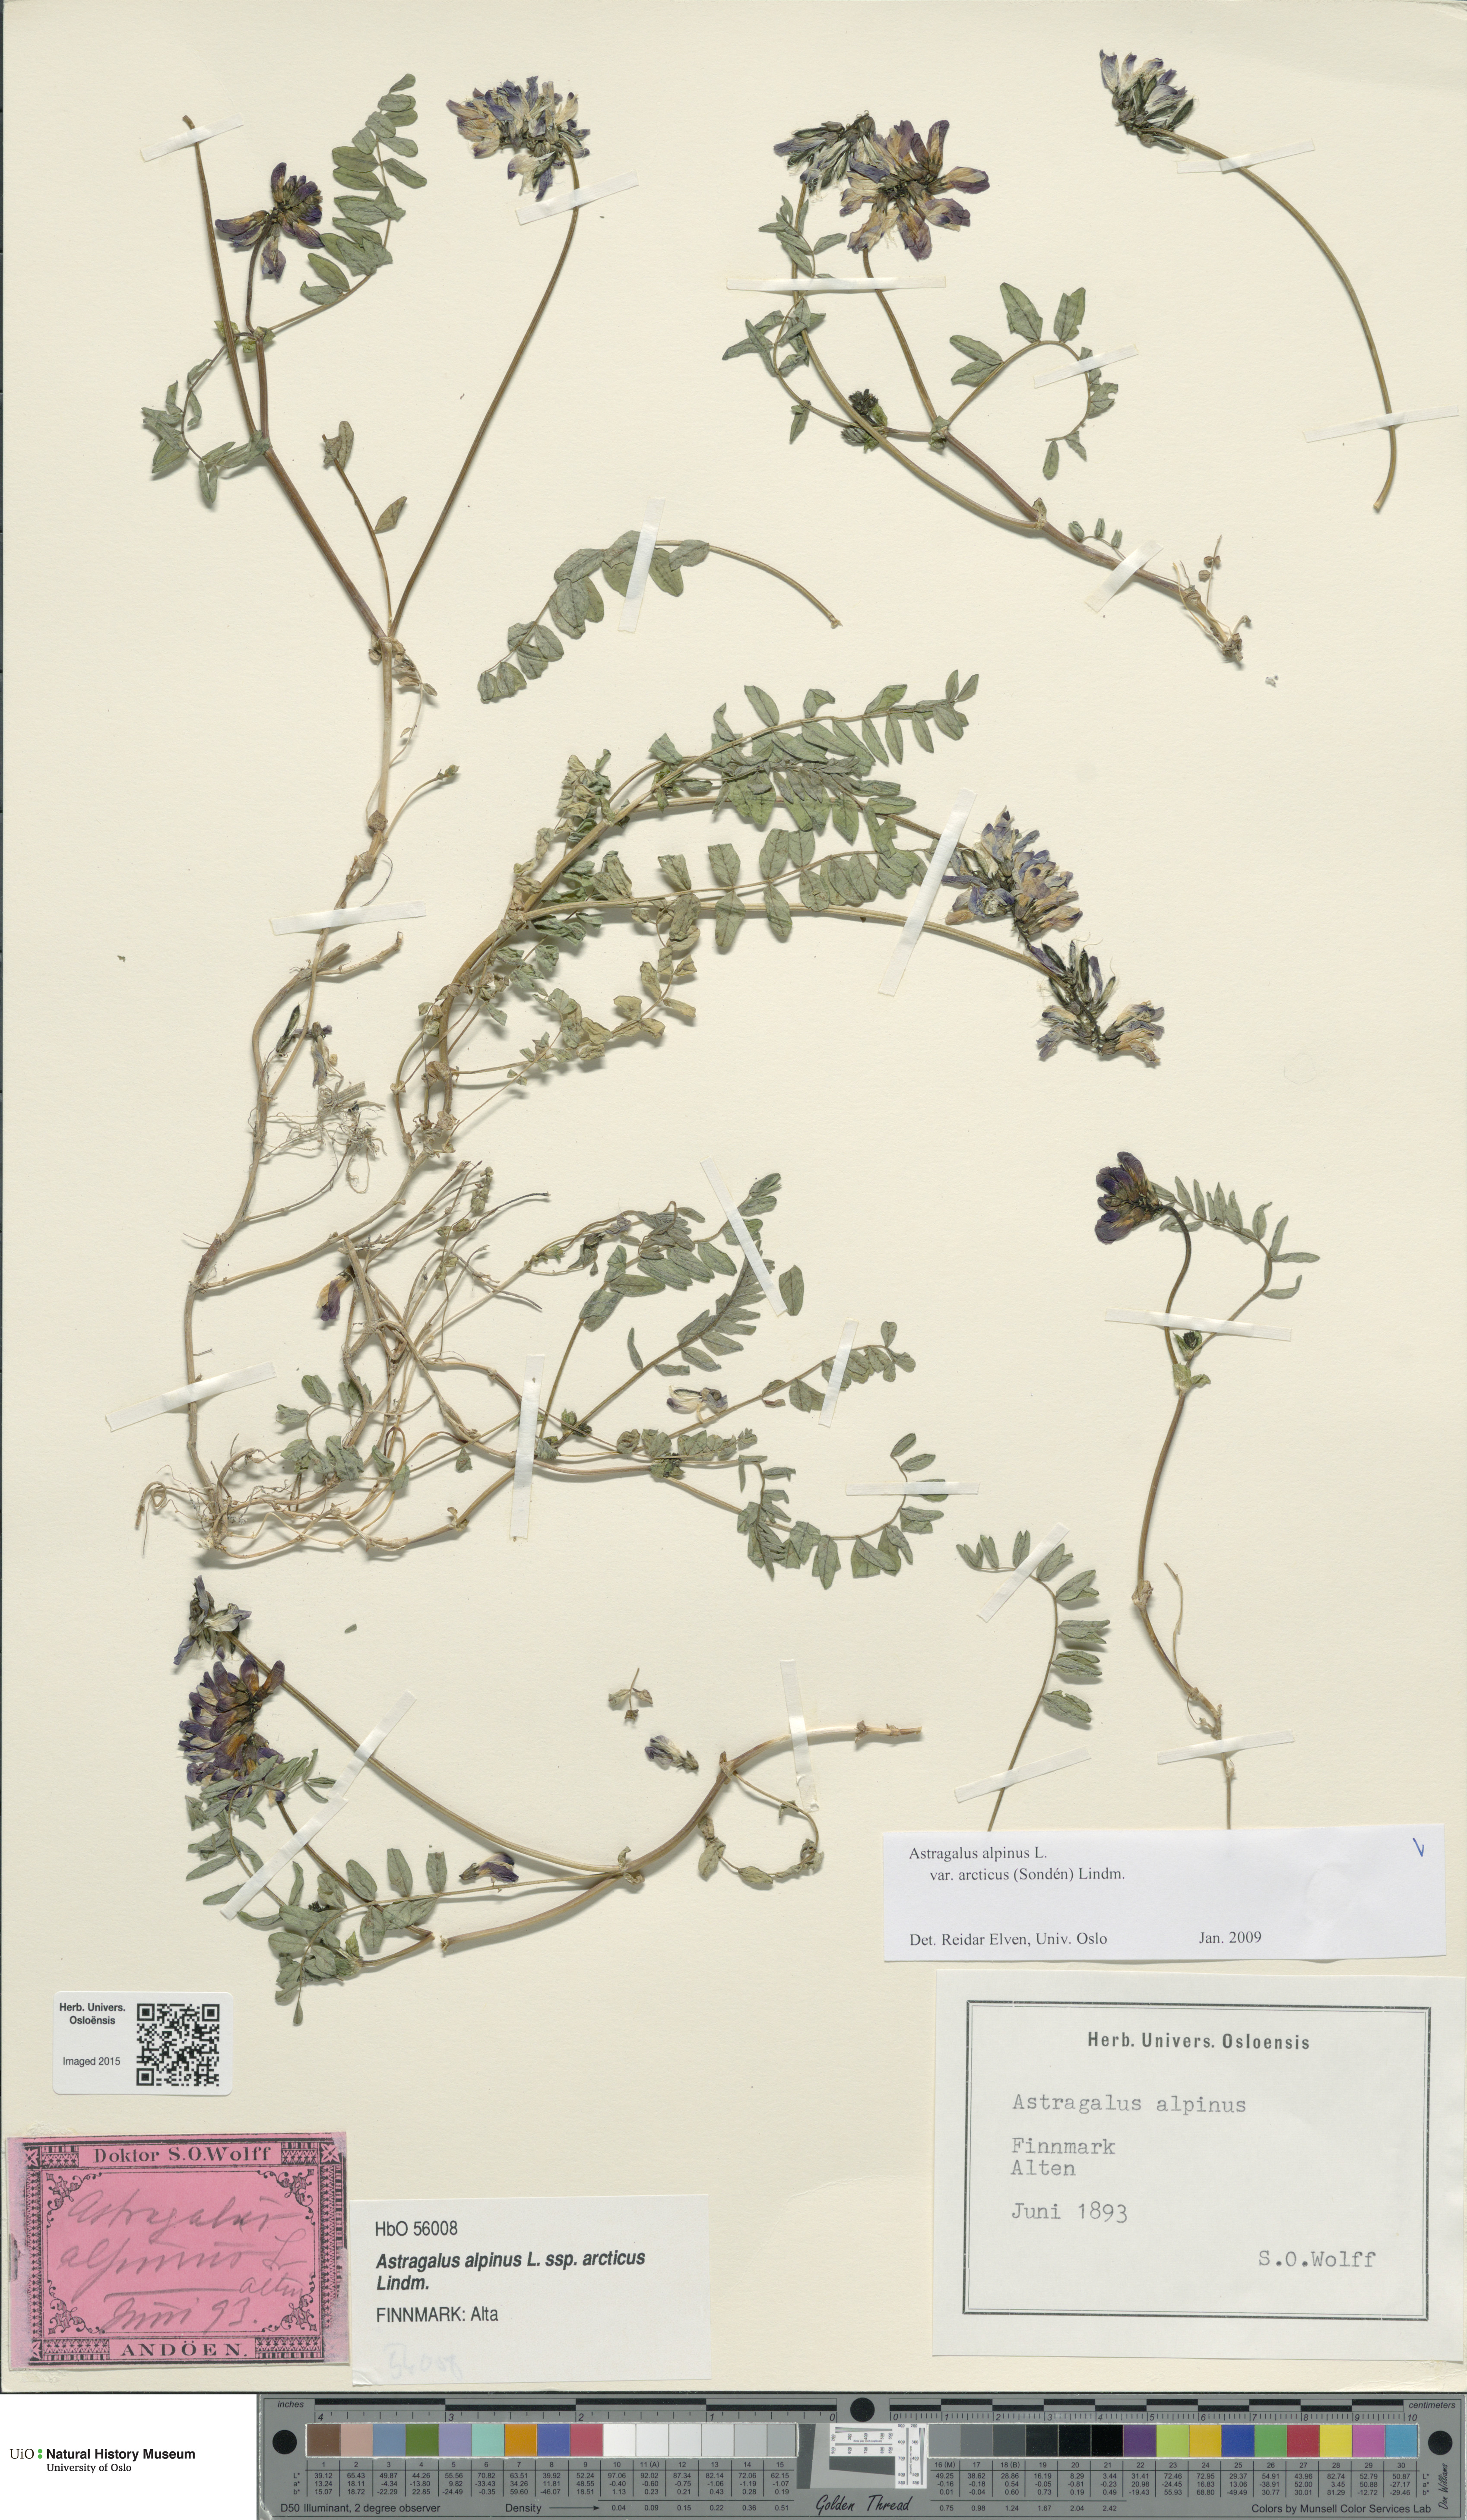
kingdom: Plantae
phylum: Tracheophyta
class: Magnoliopsida
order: Fabales
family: Fabaceae
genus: Astragalus
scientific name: Astragalus norvegicus
